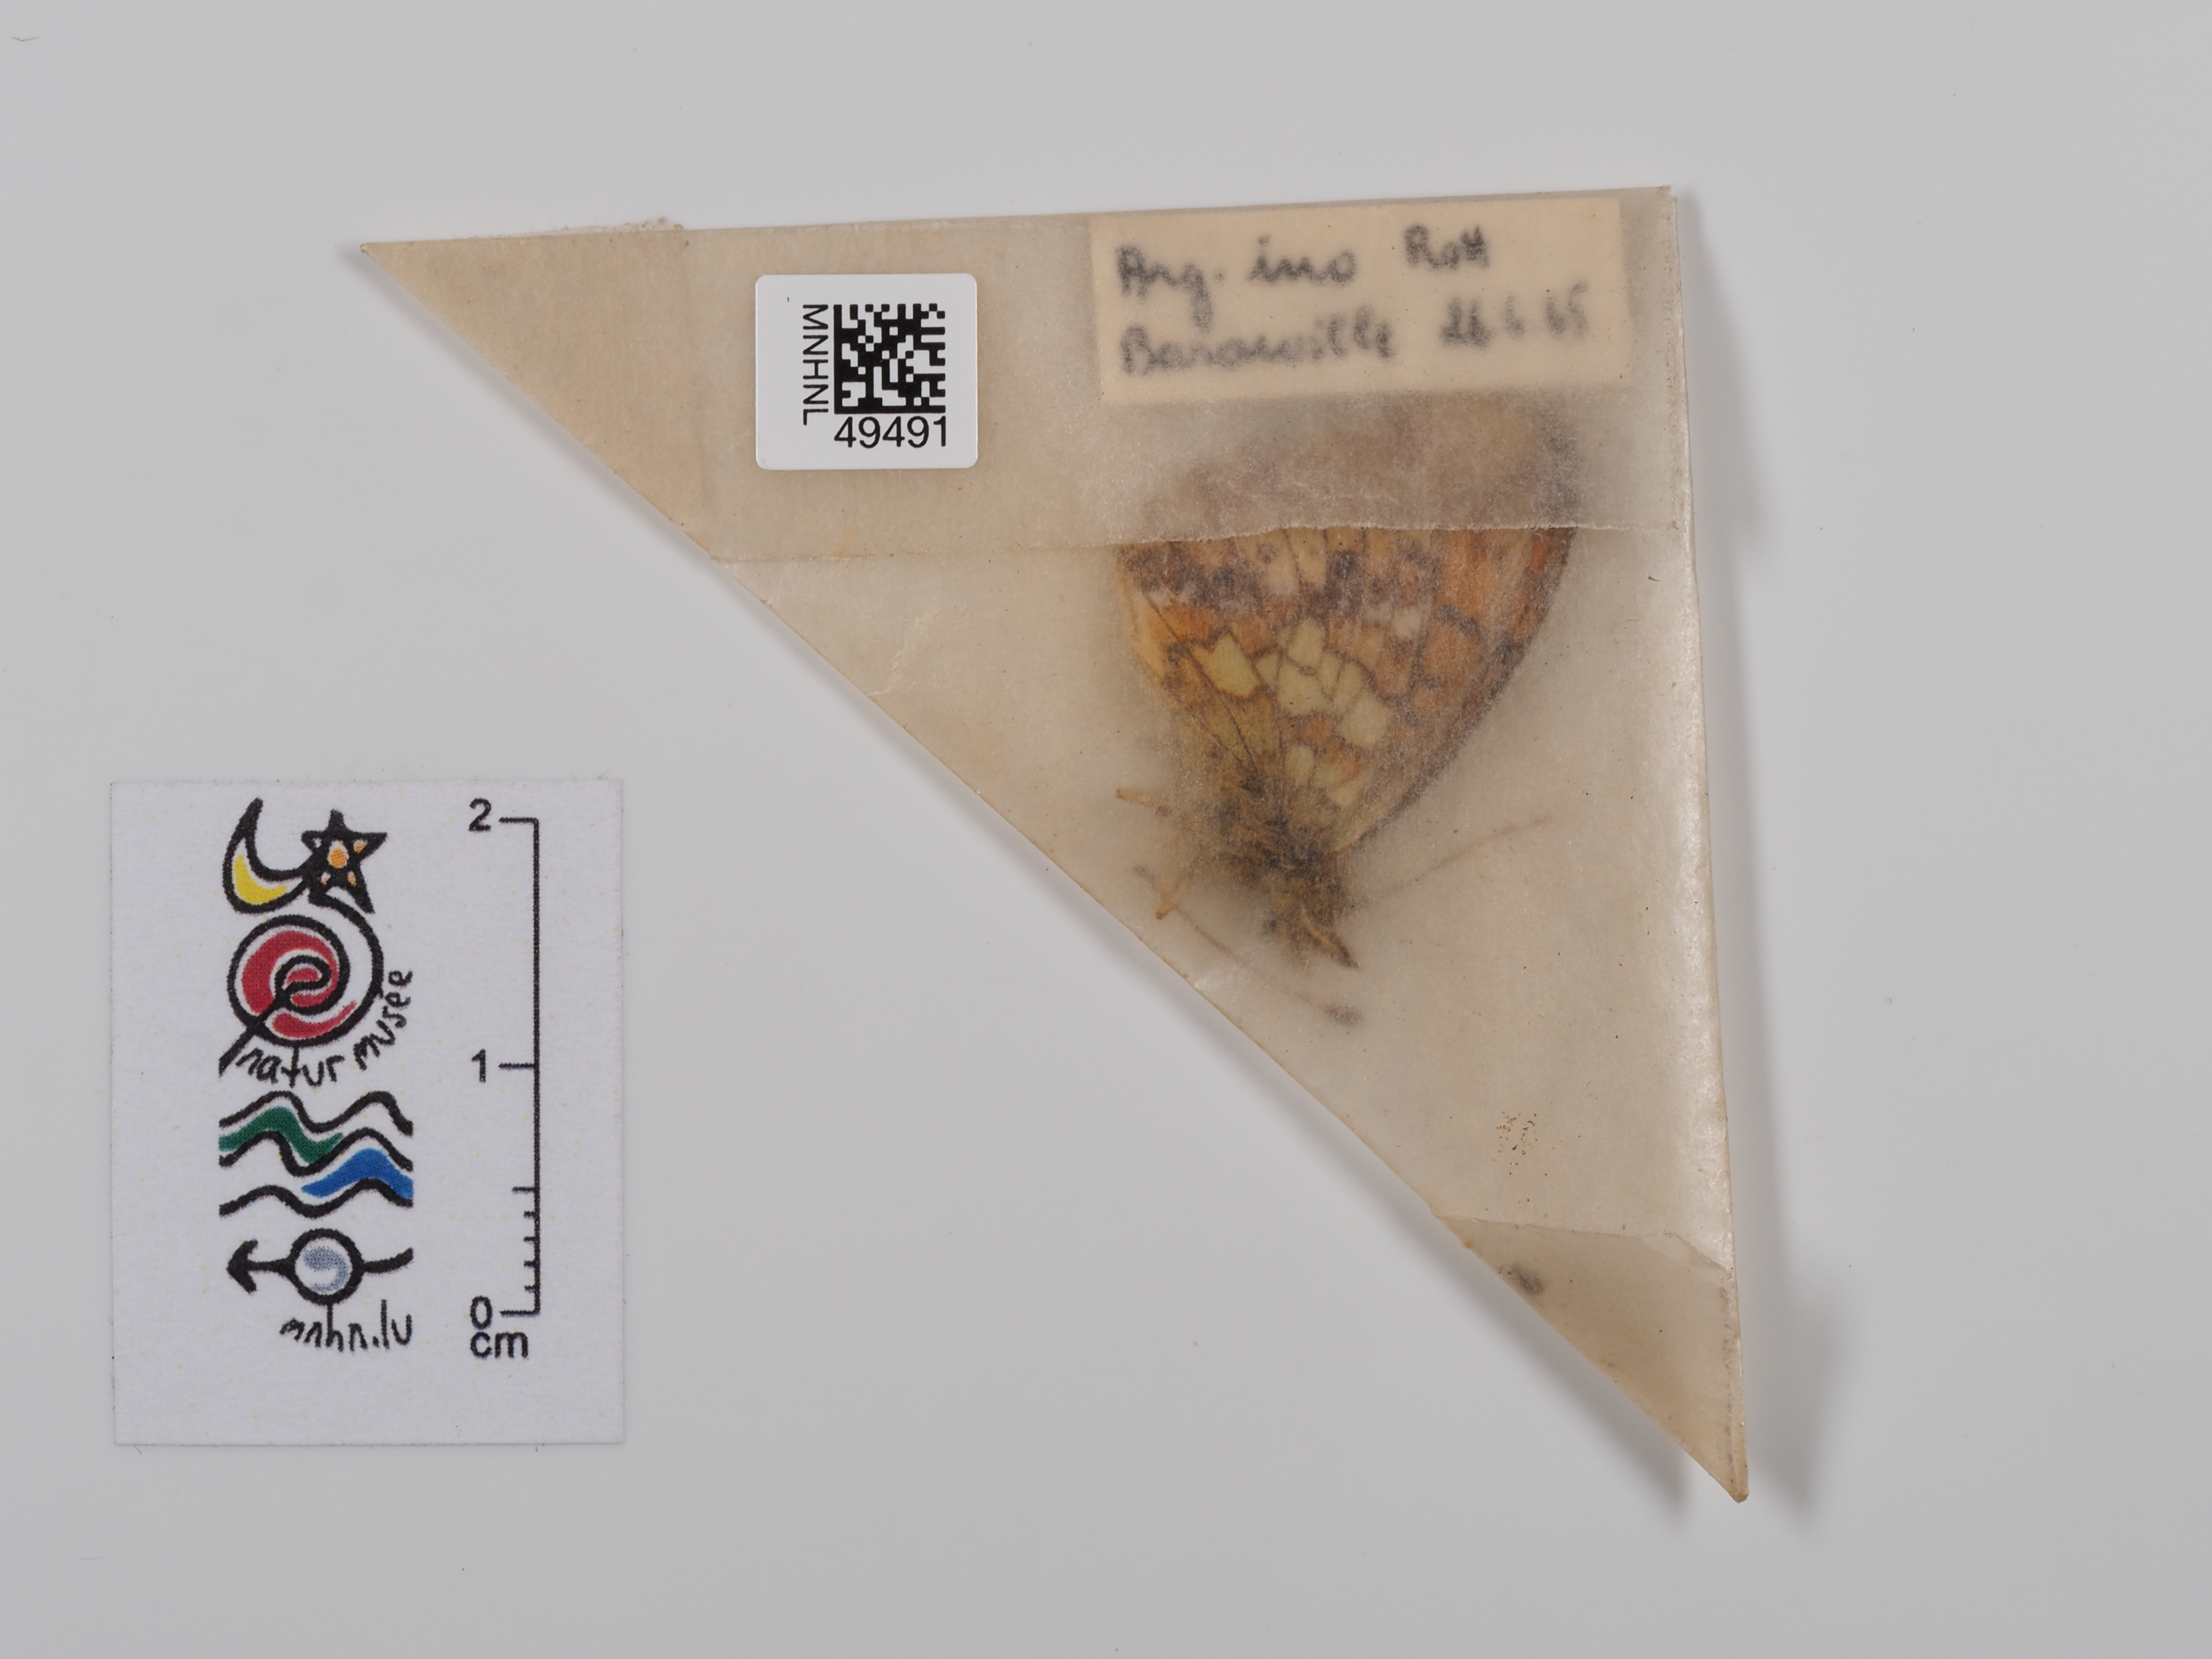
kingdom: Animalia
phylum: Arthropoda
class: Insecta
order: Lepidoptera
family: Nymphalidae
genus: Brenthis
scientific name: Brenthis ino
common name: Lesser marbled fritillary
